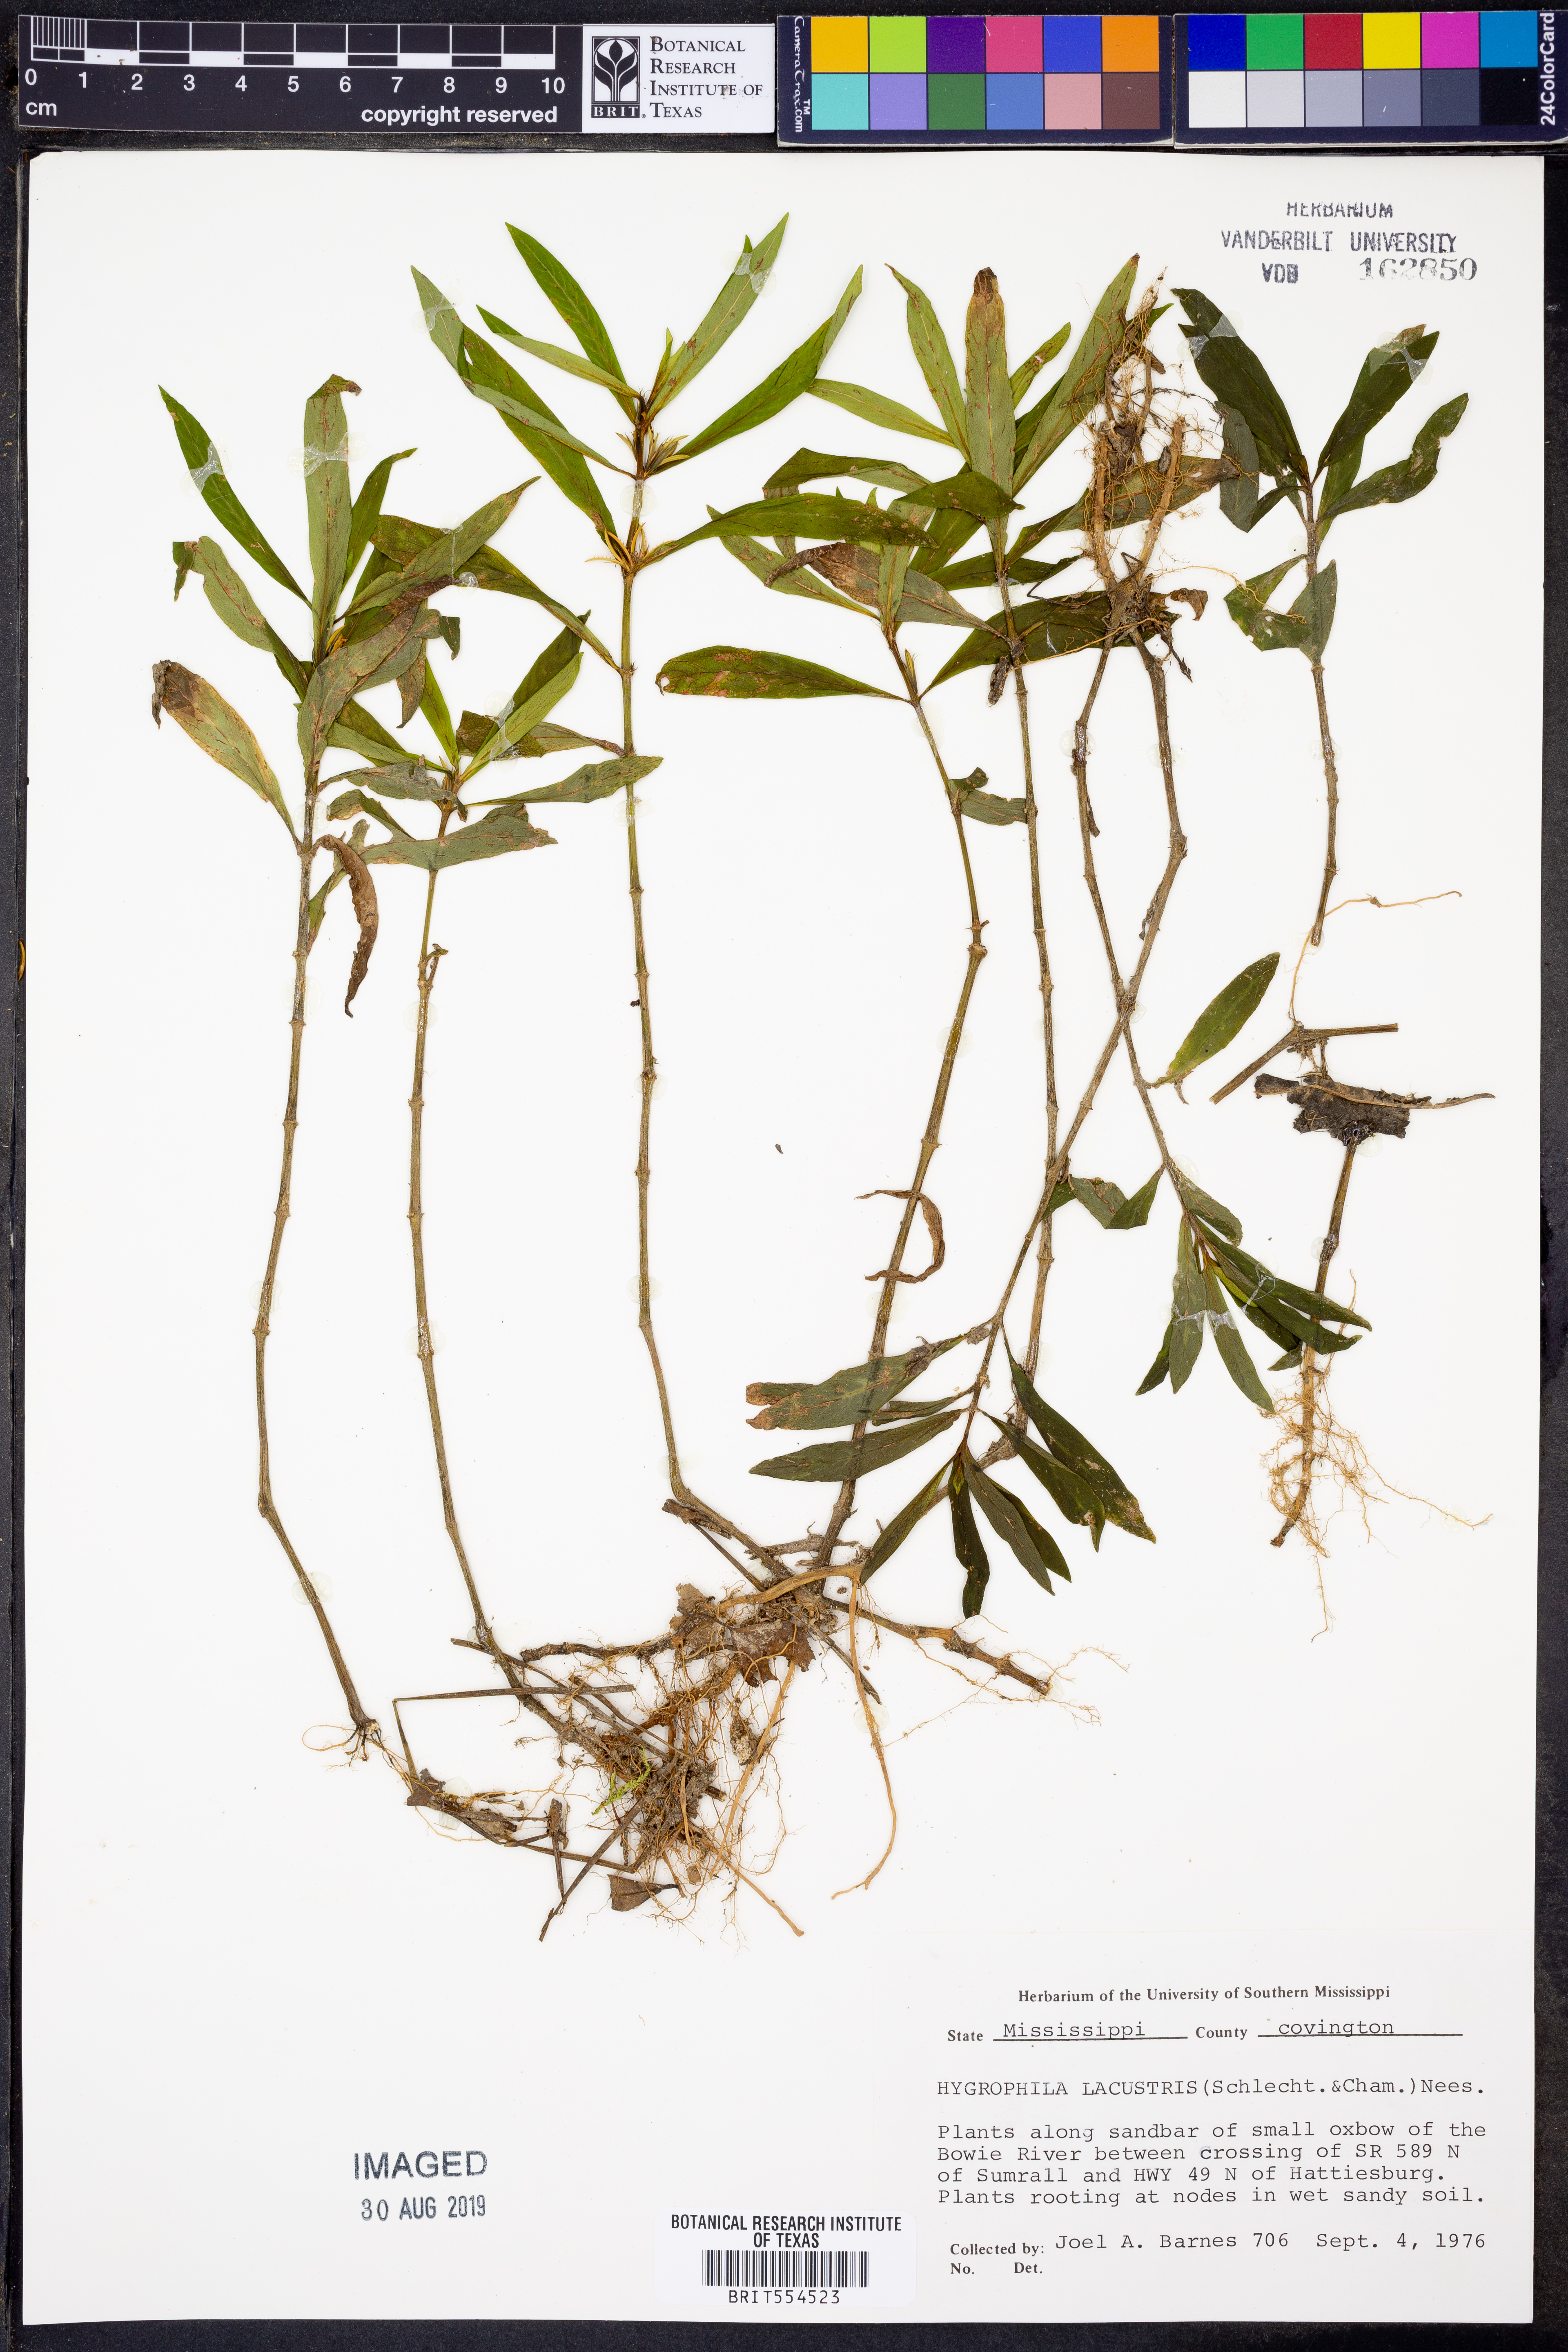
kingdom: Plantae
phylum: Tracheophyta
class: Magnoliopsida
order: Lamiales
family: Acanthaceae
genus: Hygrophila
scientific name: Hygrophila costata
